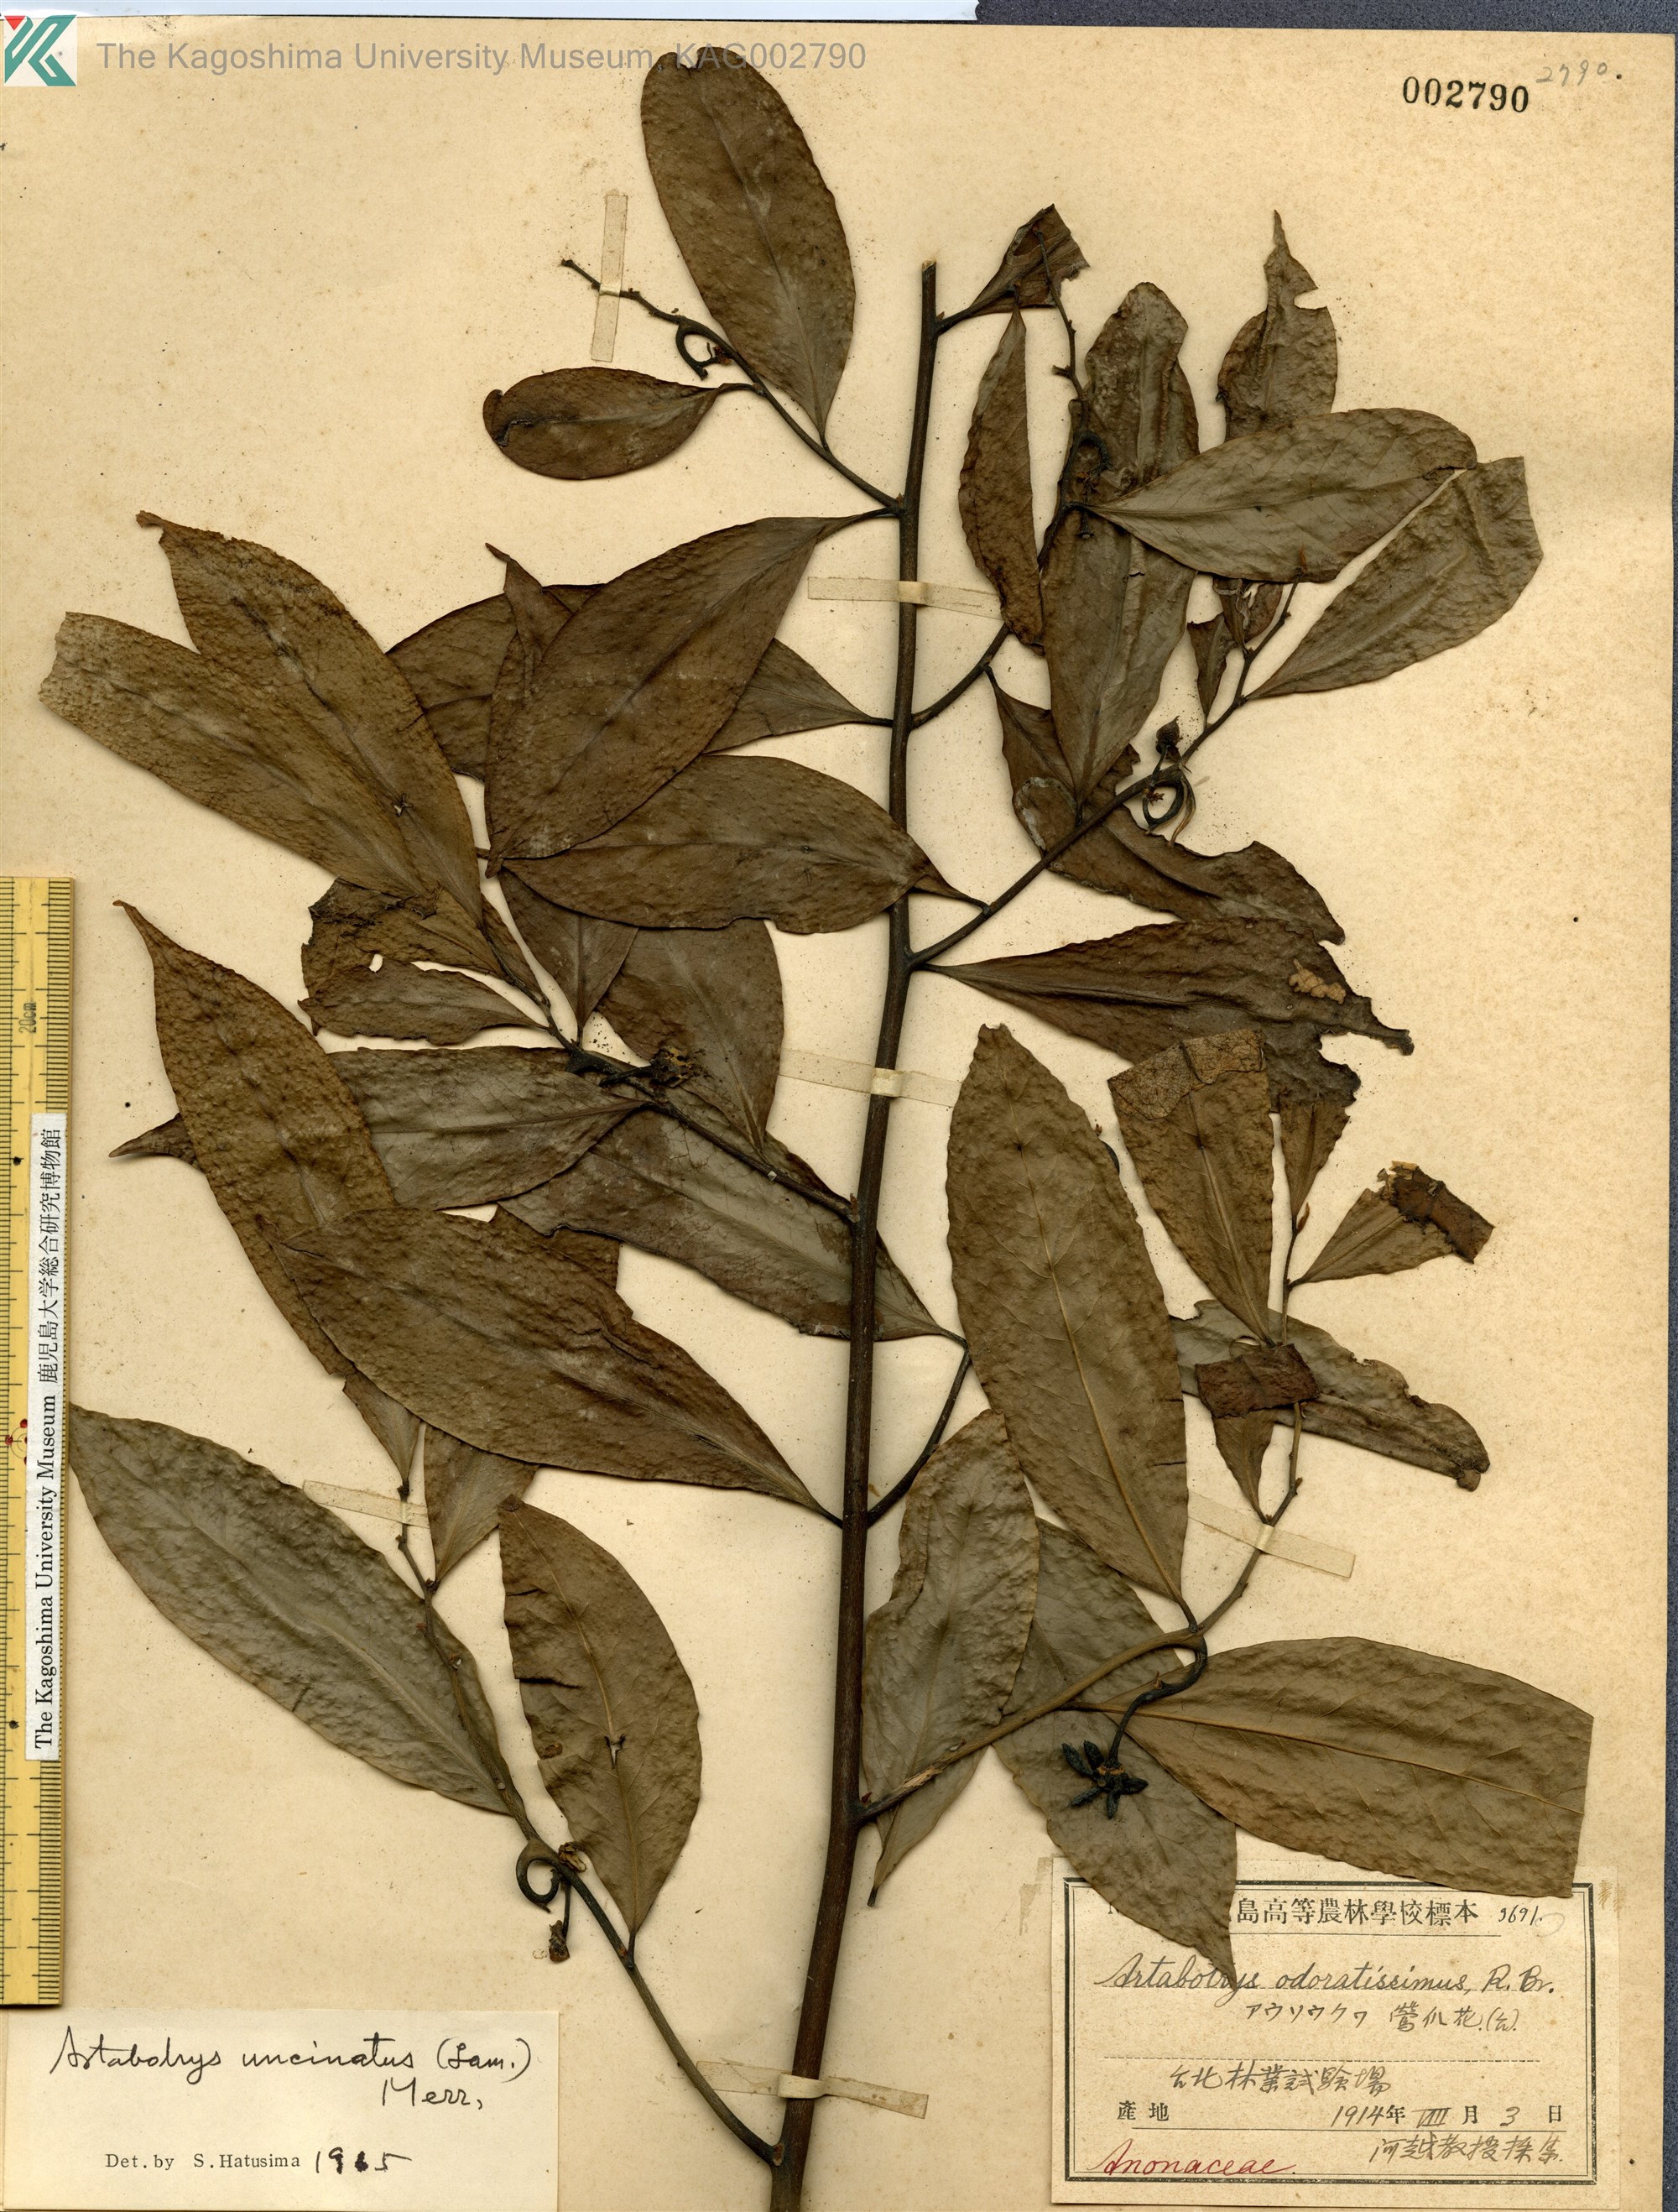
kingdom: Plantae
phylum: Tracheophyta
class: Magnoliopsida
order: Magnoliales
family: Annonaceae
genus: Artabotrys
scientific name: Artabotrys hexapetalus
